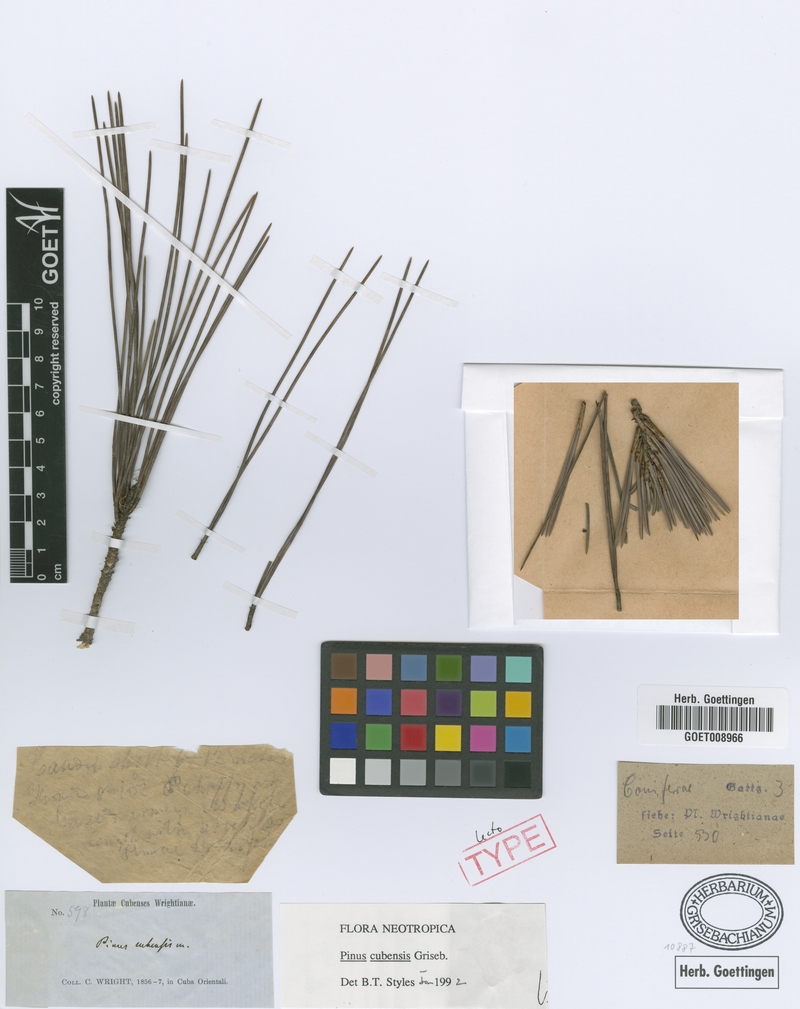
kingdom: Plantae
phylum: Tracheophyta
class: Pinopsida
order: Pinales
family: Pinaceae
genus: Pinus
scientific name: Pinus cubensis
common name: Cuban pine
